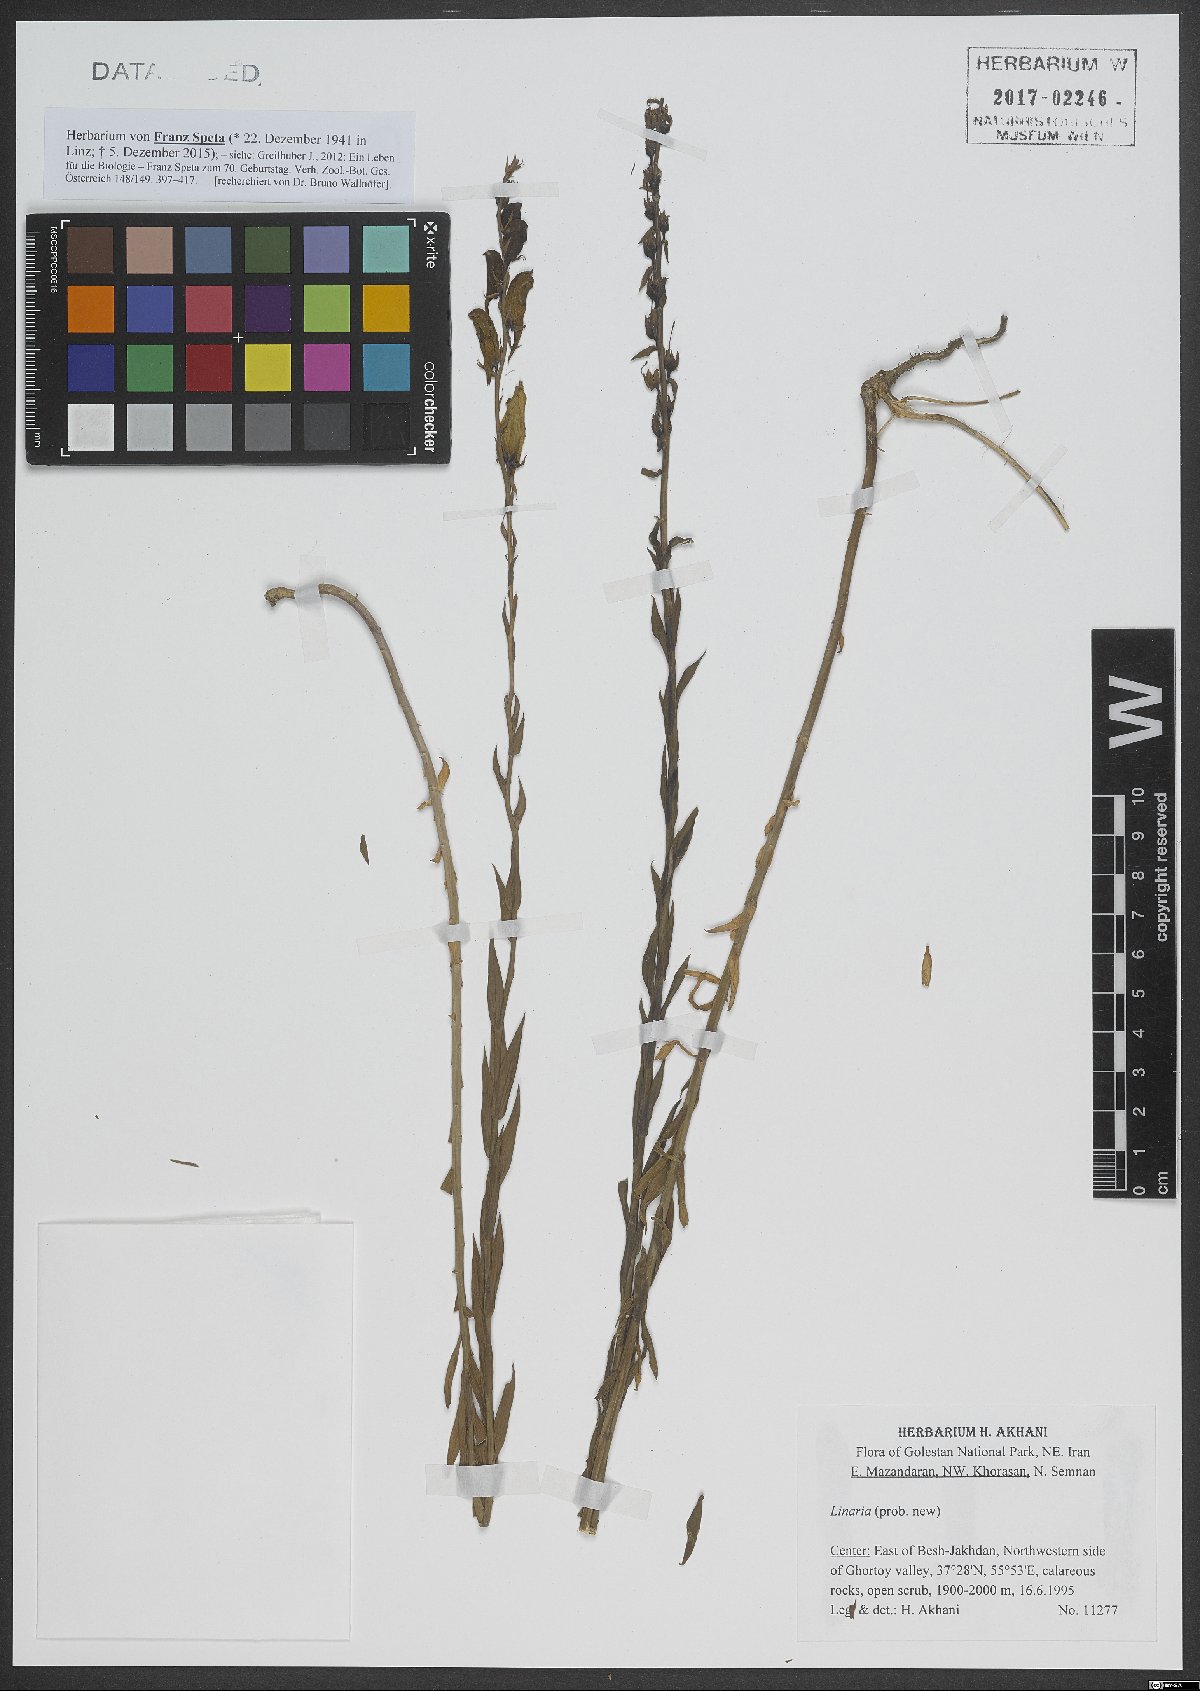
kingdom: Plantae
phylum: Tracheophyta
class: Magnoliopsida
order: Lamiales
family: Plantaginaceae
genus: Linaria
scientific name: Linaria
